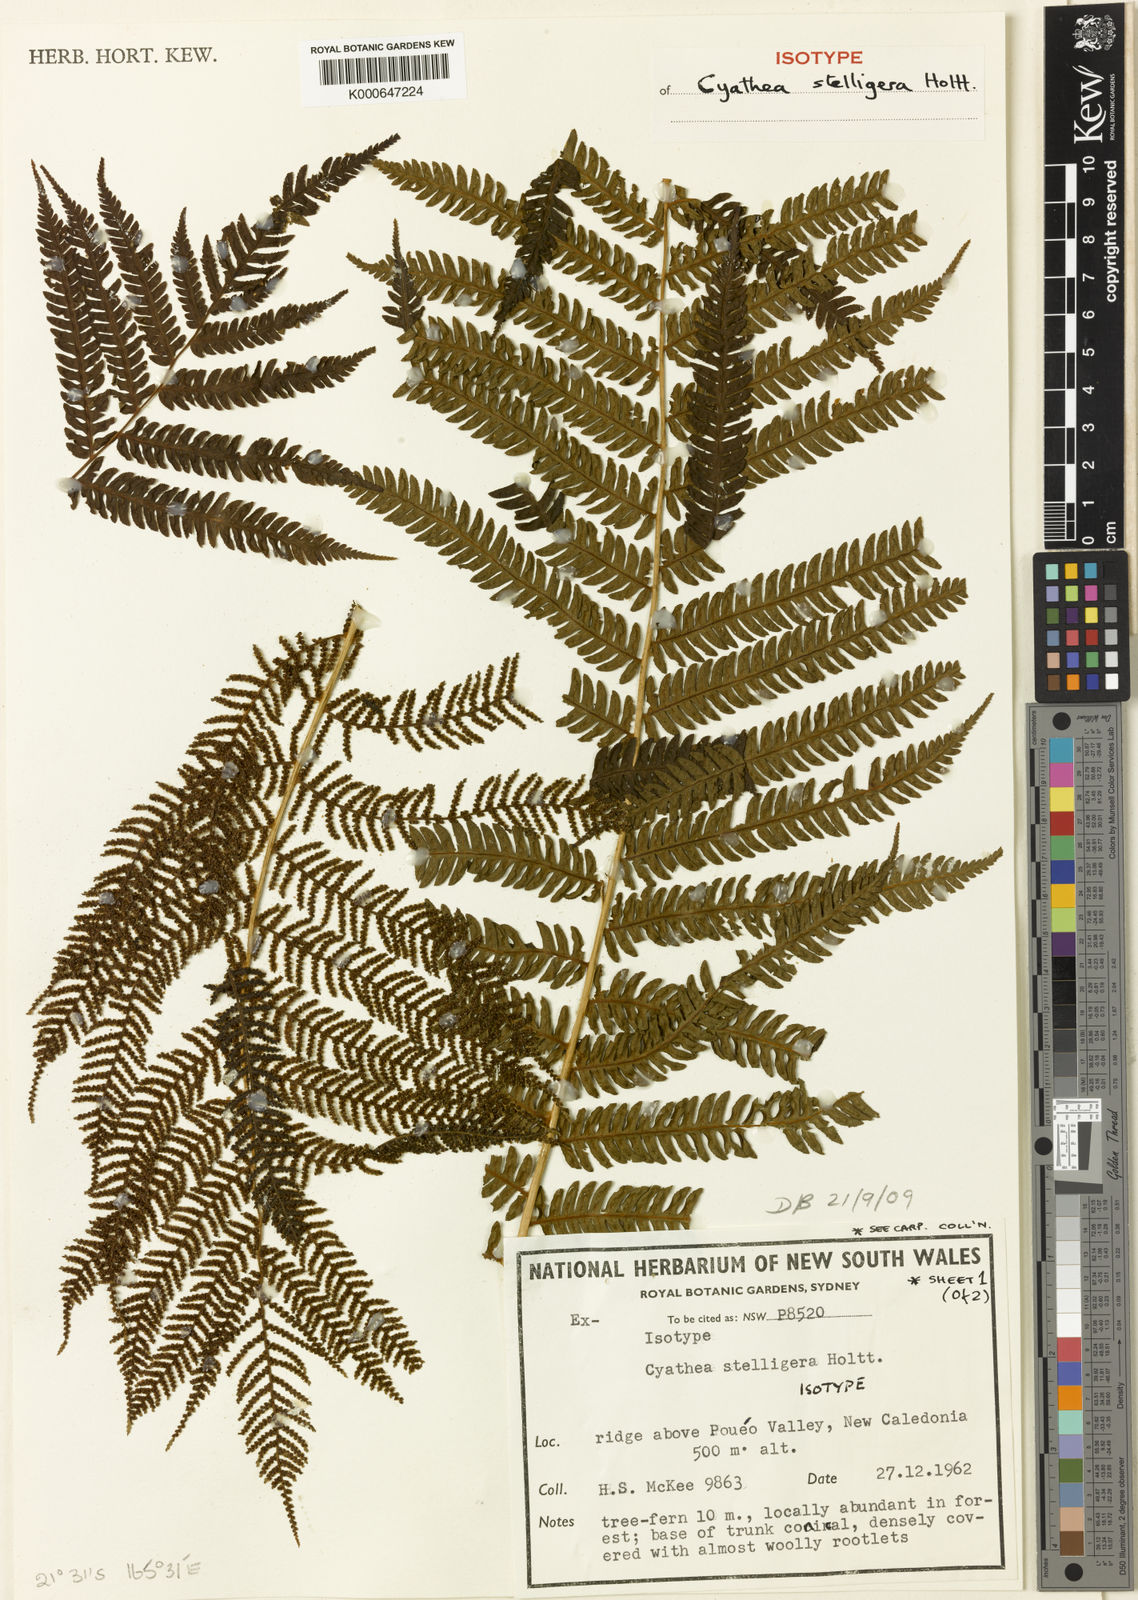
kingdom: Plantae
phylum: Tracheophyta
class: Polypodiopsida
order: Cyatheales
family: Cyatheaceae
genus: Alsophila
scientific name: Alsophila stelligera
